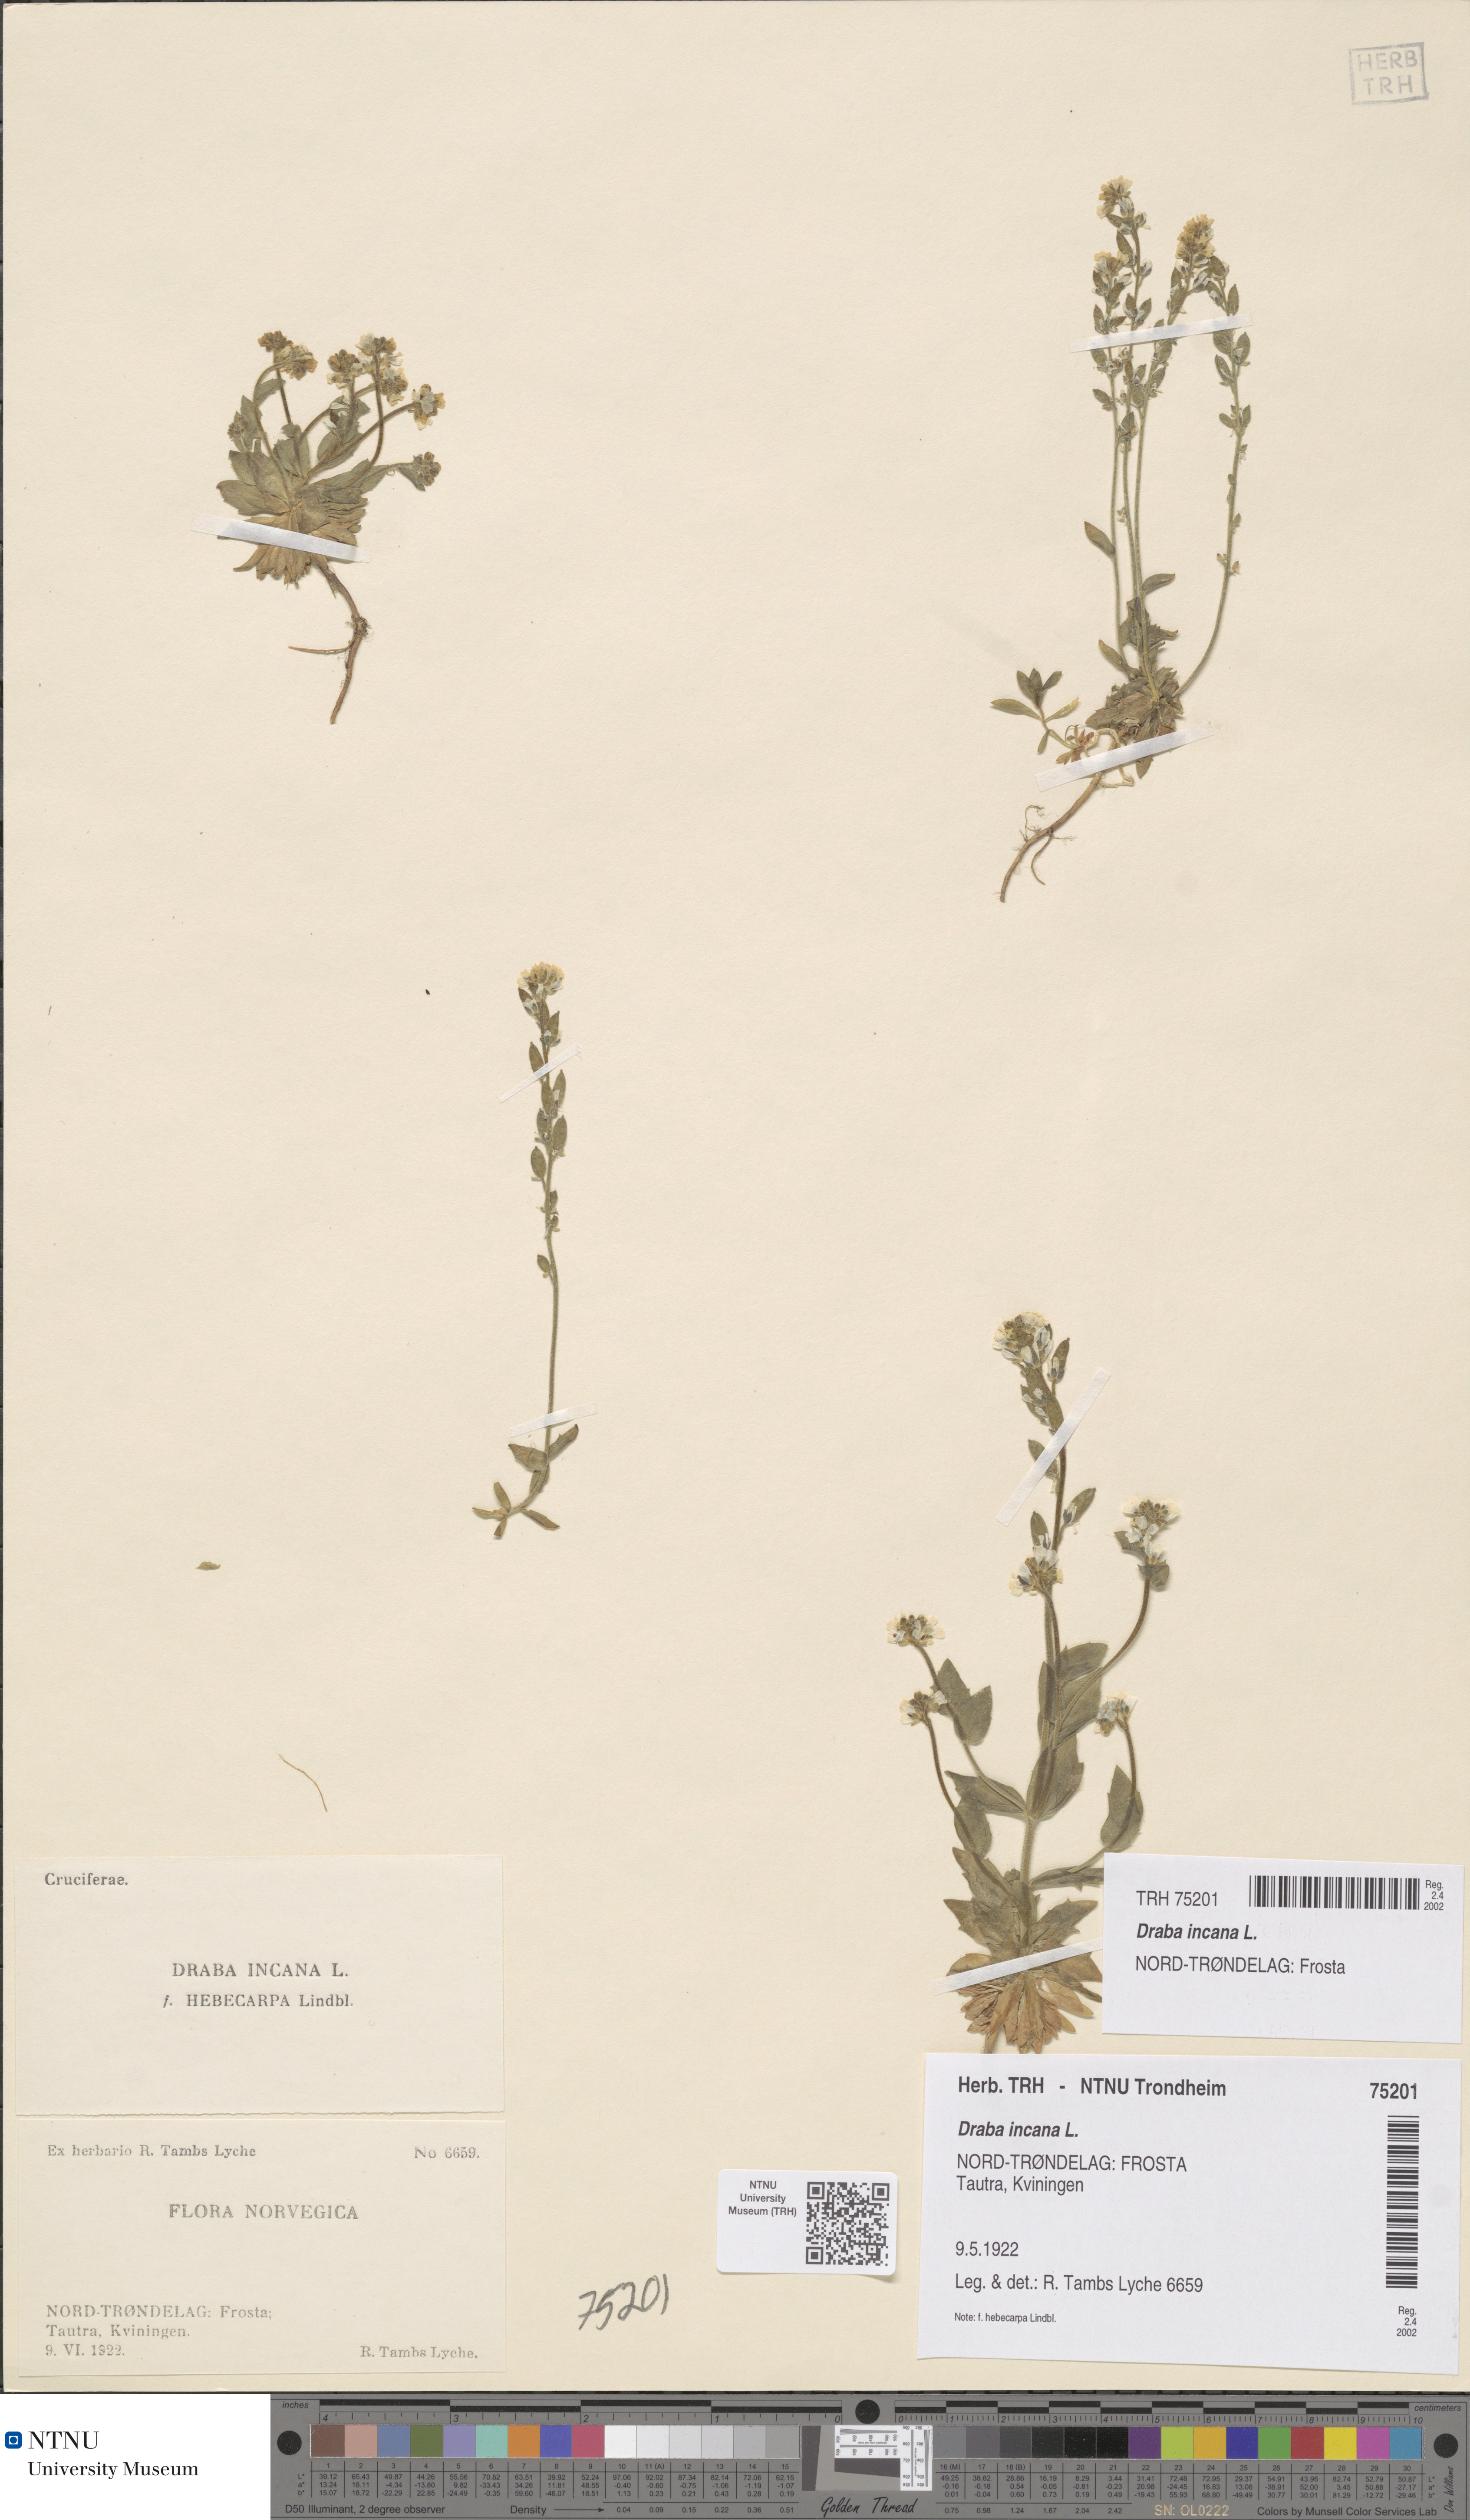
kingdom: Plantae
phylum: Tracheophyta
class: Magnoliopsida
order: Brassicales
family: Brassicaceae
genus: Draba
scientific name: Draba incana
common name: Hoary whitlow-grass
